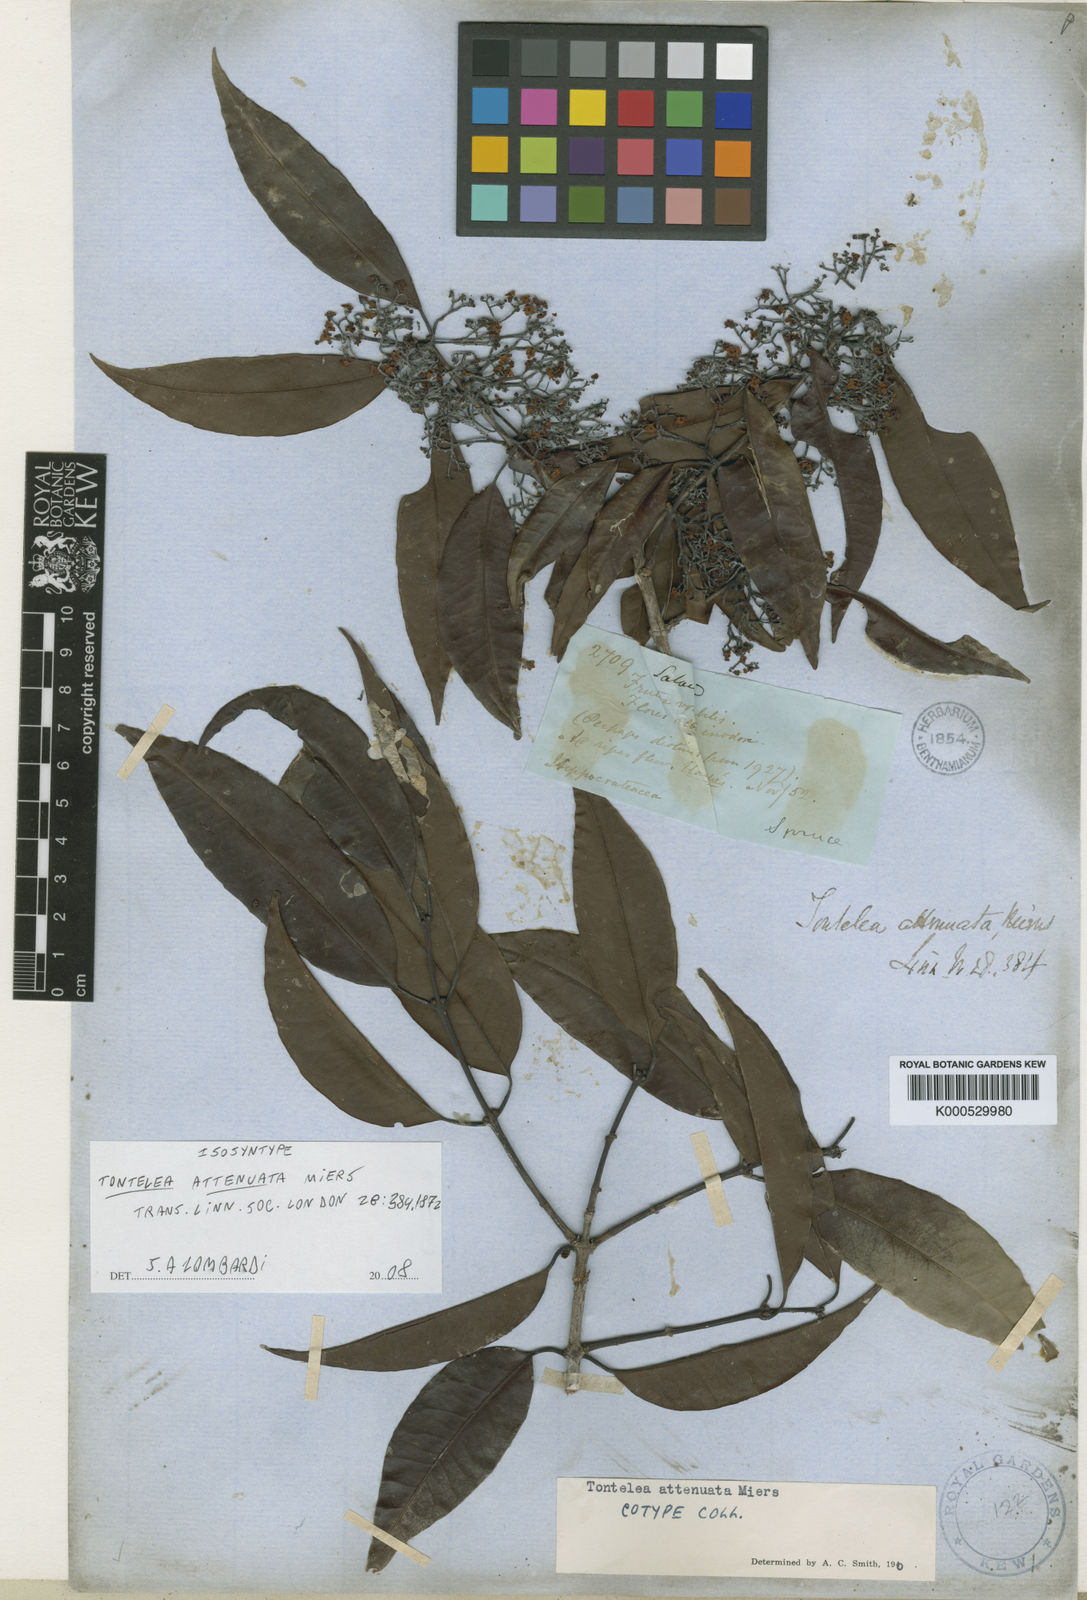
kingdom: Plantae
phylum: Tracheophyta
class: Magnoliopsida
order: Celastrales
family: Celastraceae
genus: Tontelea
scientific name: Tontelea attenuata
